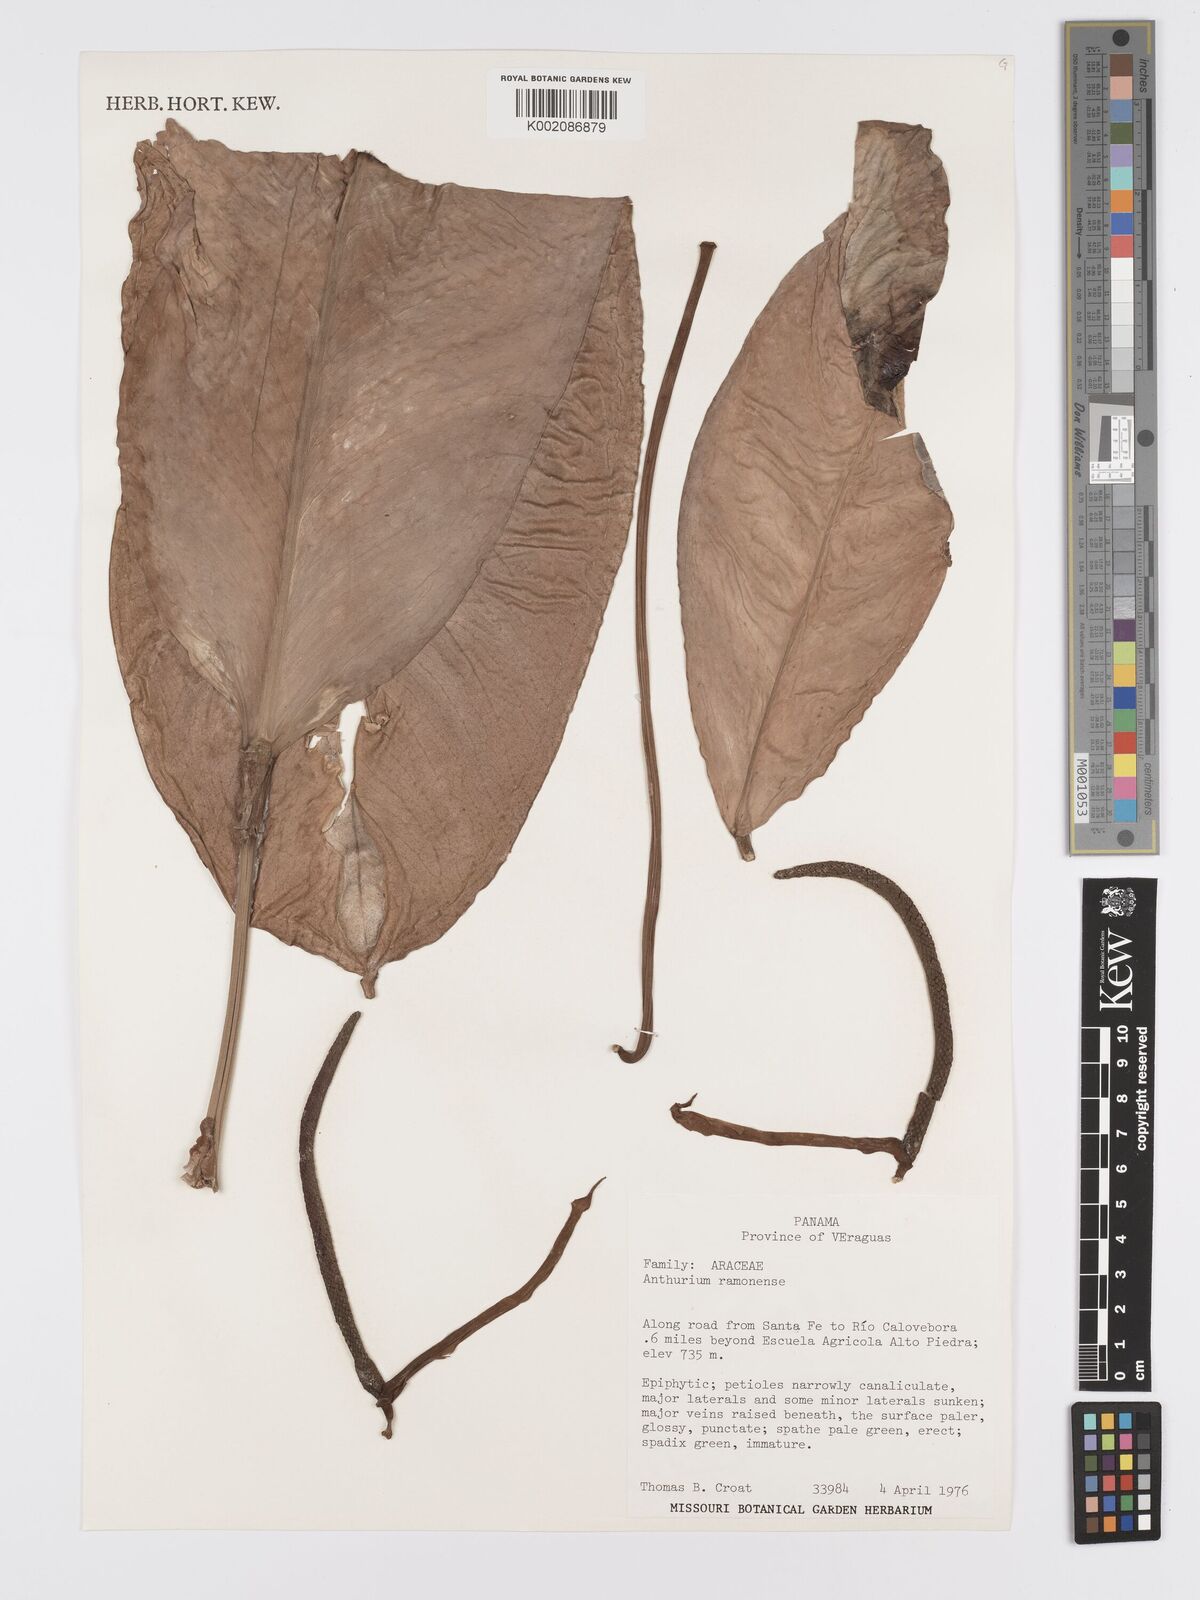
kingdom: Plantae
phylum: Tracheophyta
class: Liliopsida
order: Alismatales
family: Araceae
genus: Anthurium
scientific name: Anthurium ramonense
